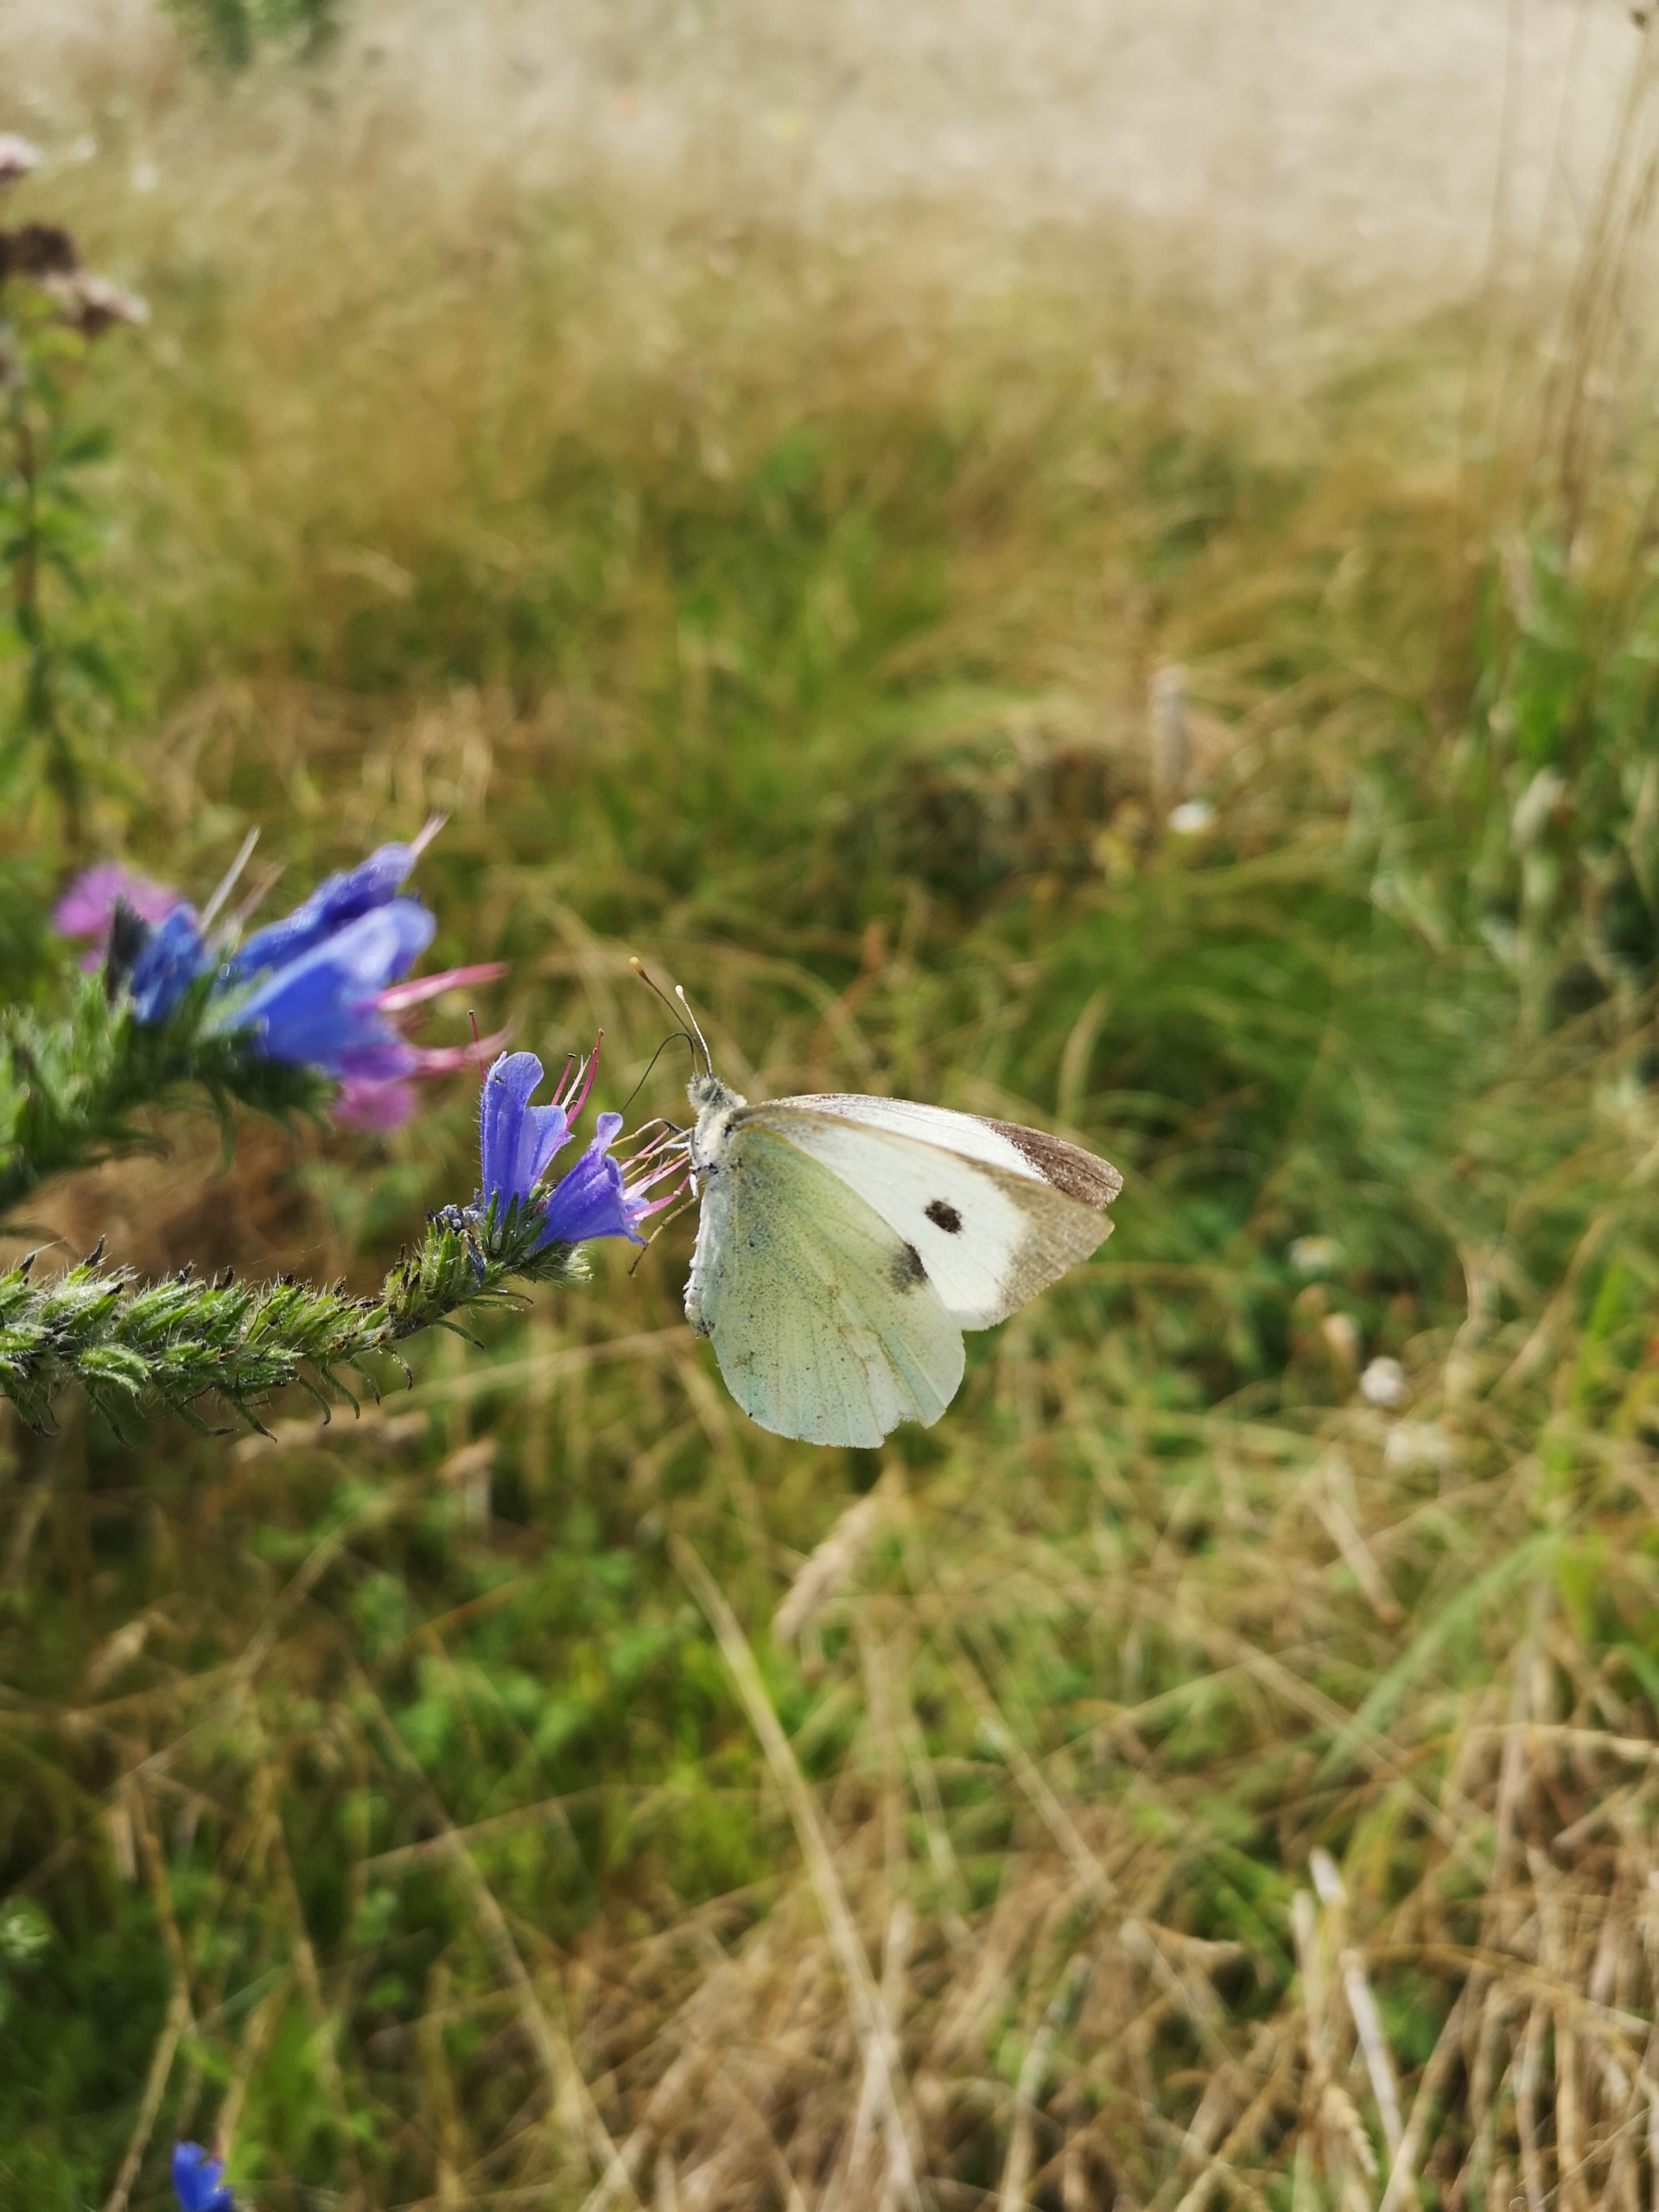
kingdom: Animalia
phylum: Arthropoda
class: Insecta
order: Lepidoptera
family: Pieridae
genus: Pieris
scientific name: Pieris brassicae
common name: Stor kålsommerfugl
